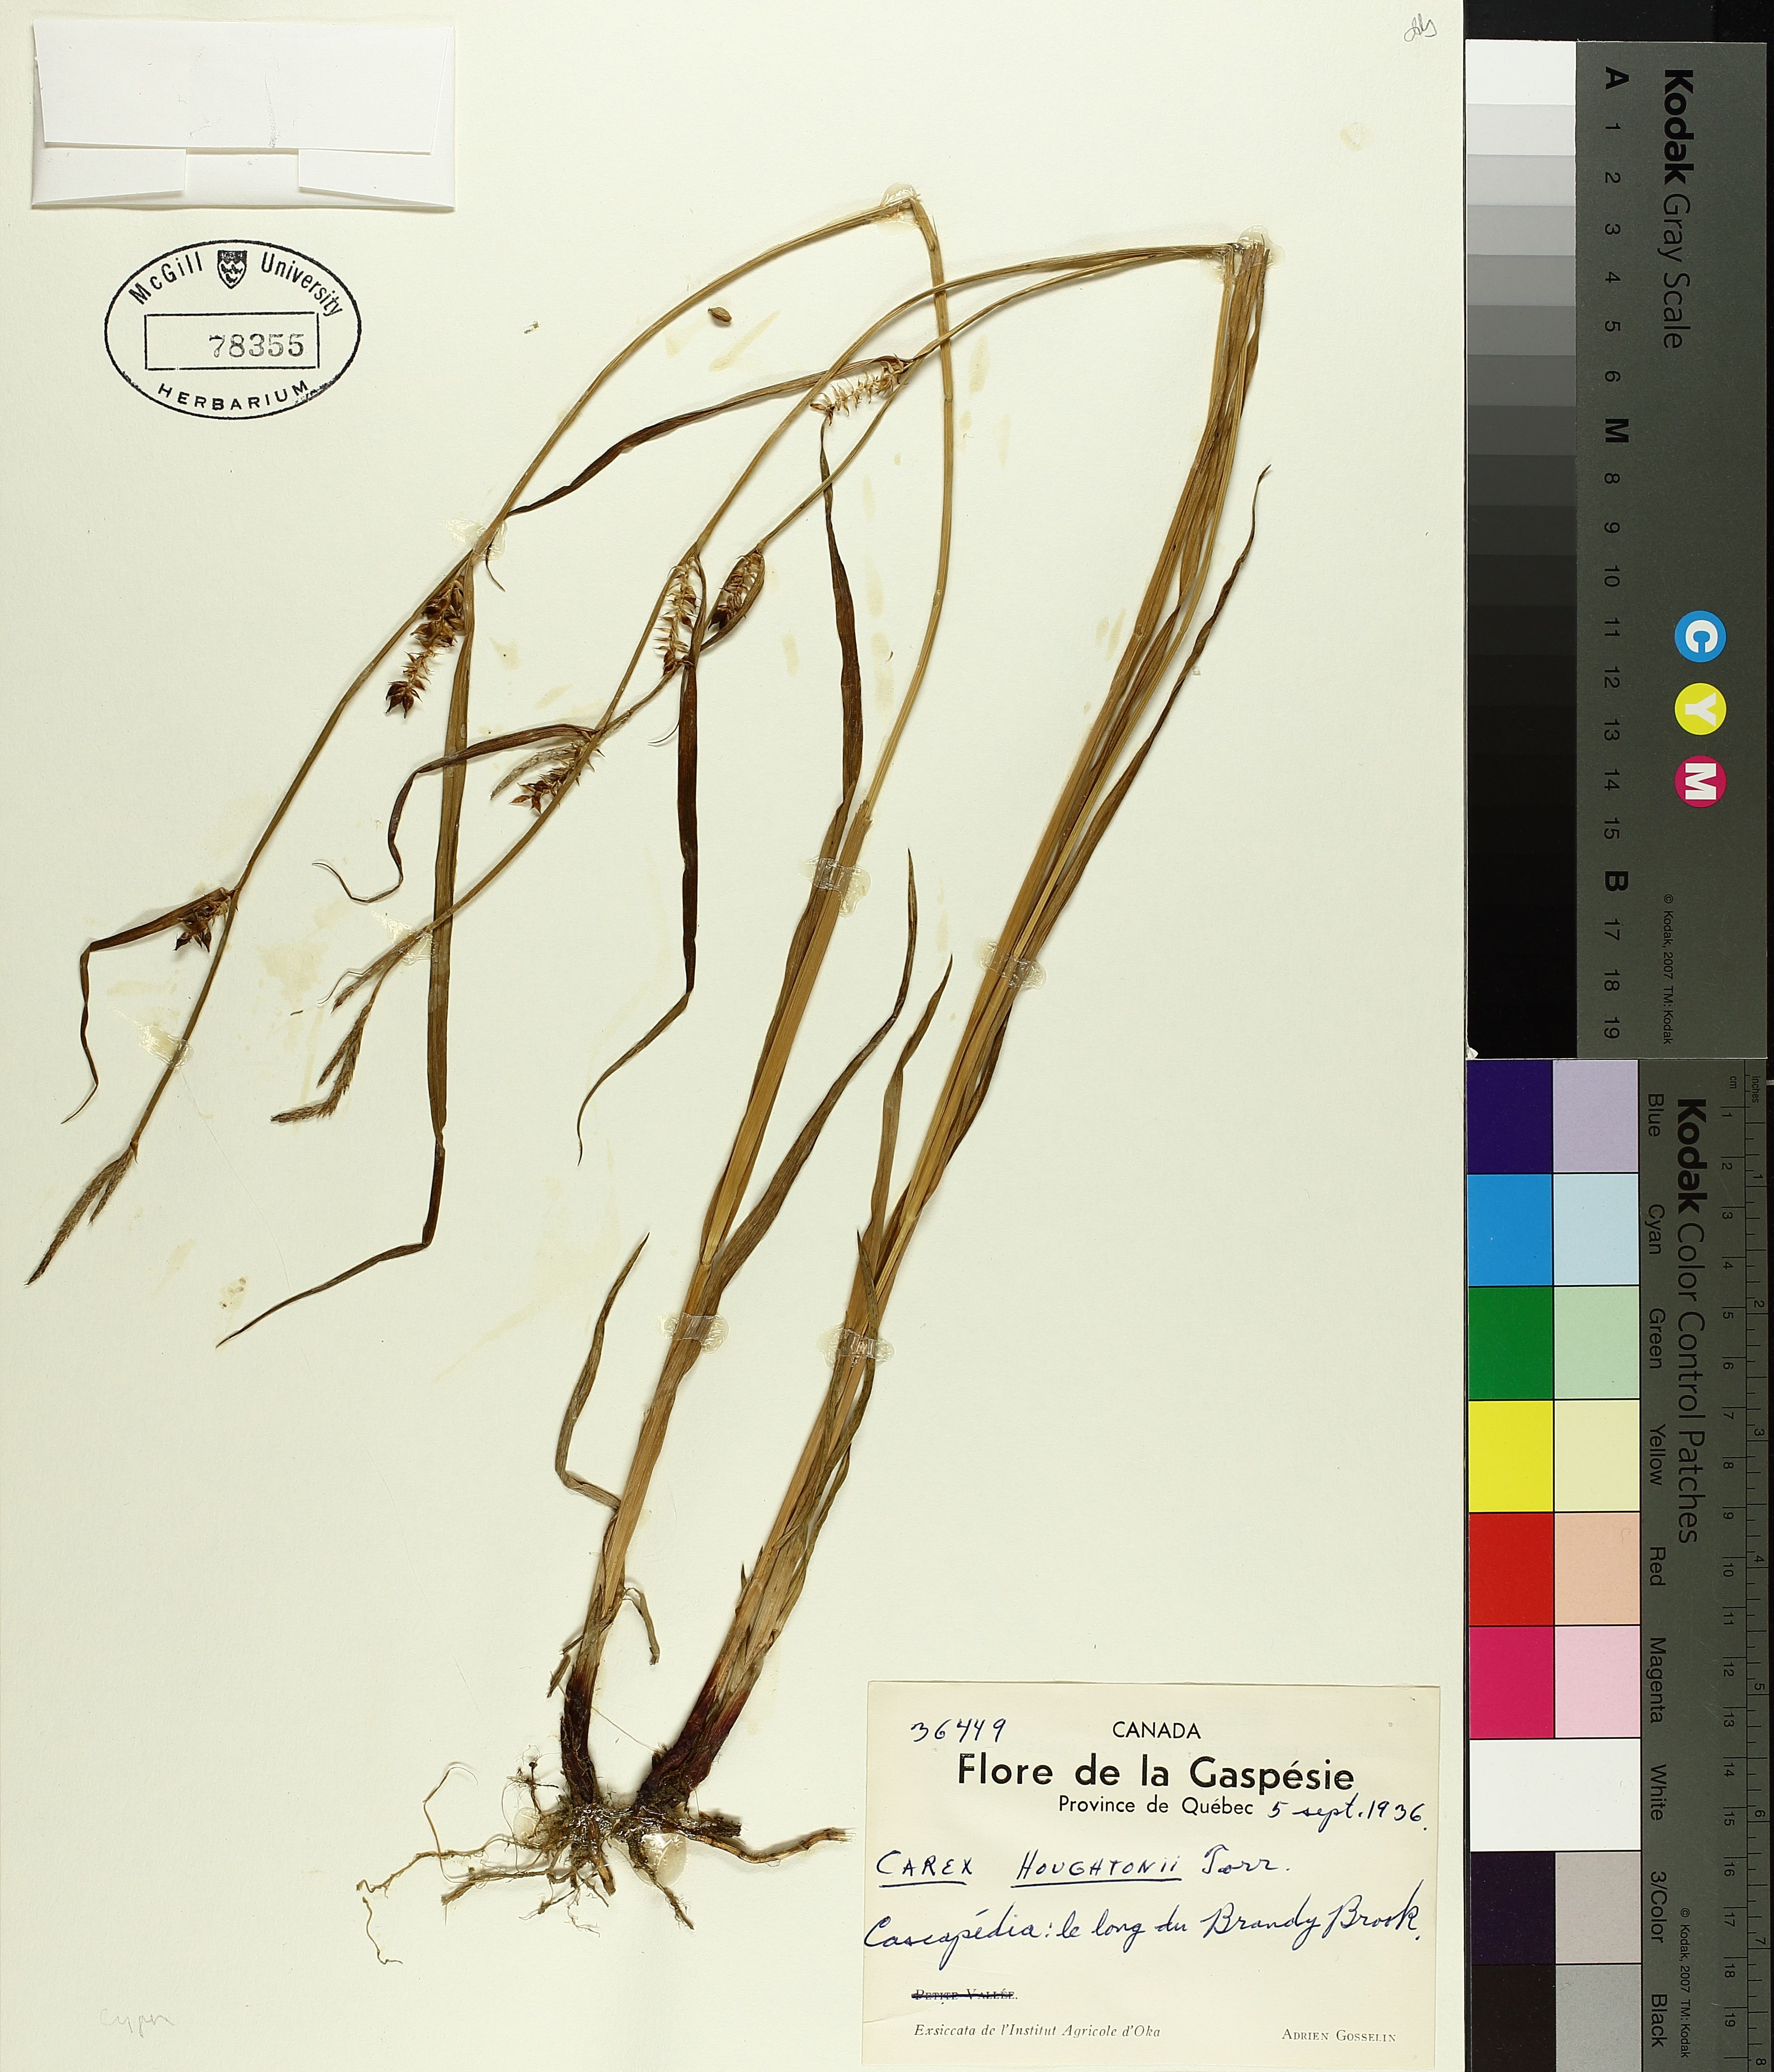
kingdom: Plantae
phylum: Tracheophyta
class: Liliopsida
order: Poales
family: Cyperaceae
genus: Carex
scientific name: Carex houghtoniana
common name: Houghton's sedge
